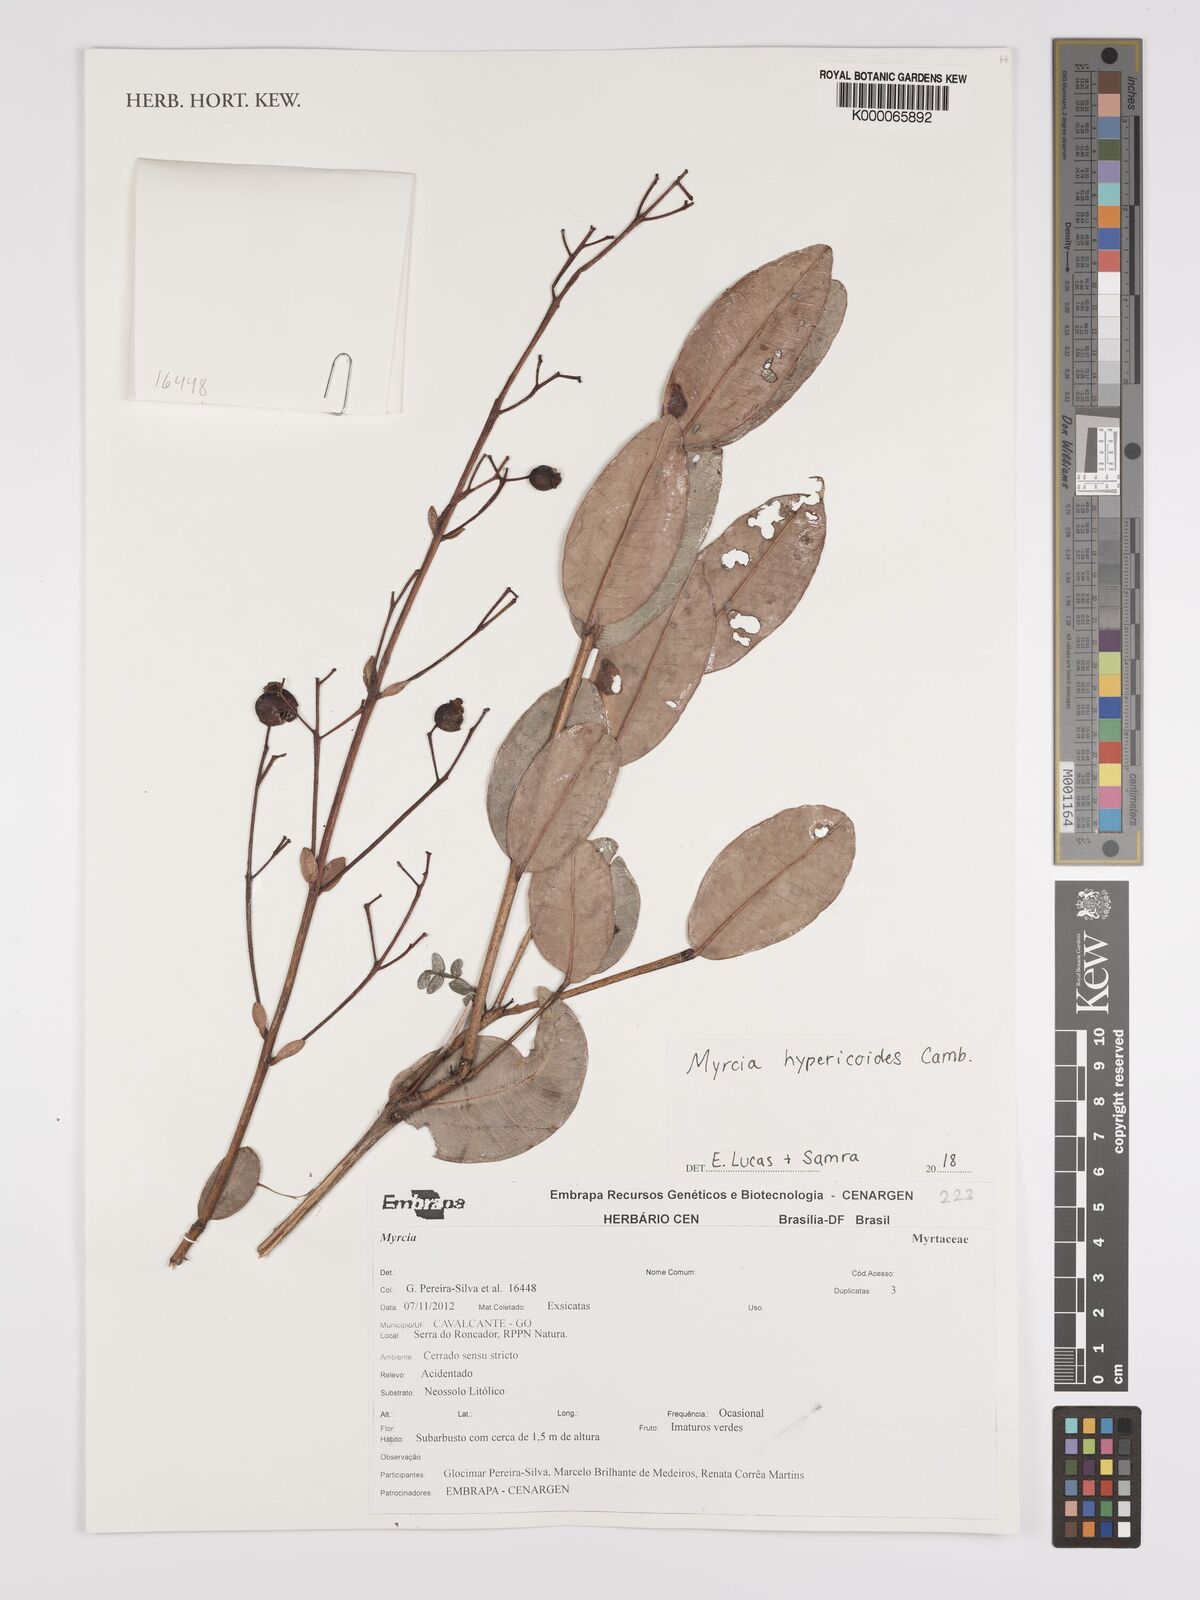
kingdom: Plantae
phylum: Tracheophyta
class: Magnoliopsida
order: Myrtales
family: Myrtaceae
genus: Myrcia
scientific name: Myrcia hypericoides
